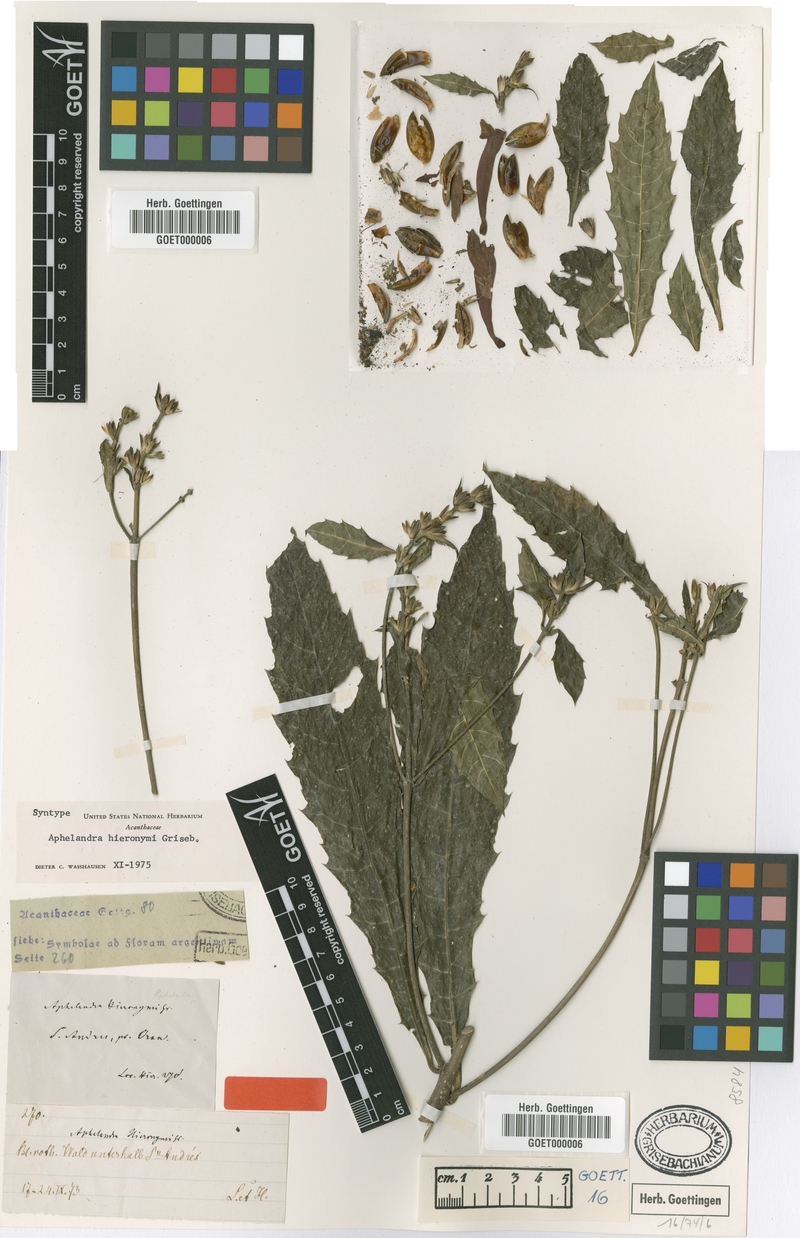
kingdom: Plantae
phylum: Tracheophyta
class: Magnoliopsida
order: Lamiales
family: Acanthaceae
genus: Aphelandra
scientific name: Aphelandra hieronymi
